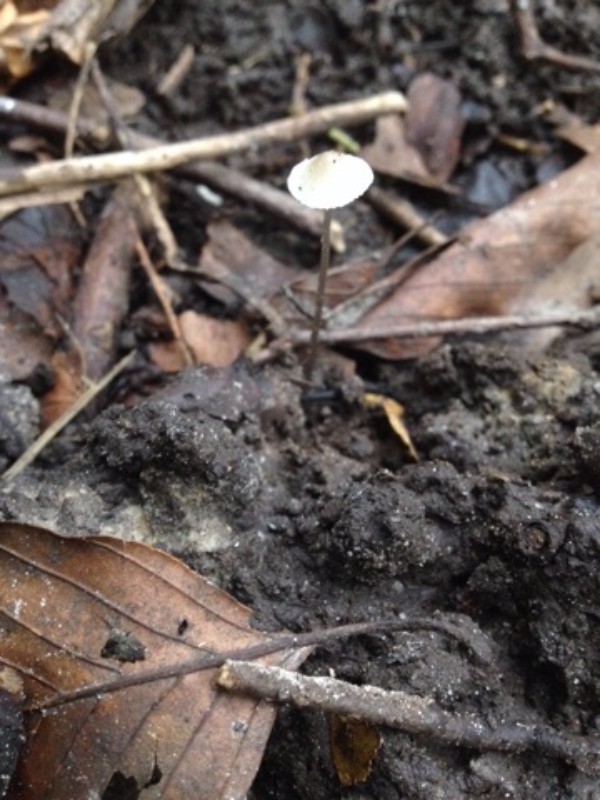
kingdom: Fungi
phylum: Basidiomycota
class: Agaricomycetes
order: Agaricales
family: Mycenaceae
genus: Mycena
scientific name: Mycena vitilis
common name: blankstokket huesvamp
